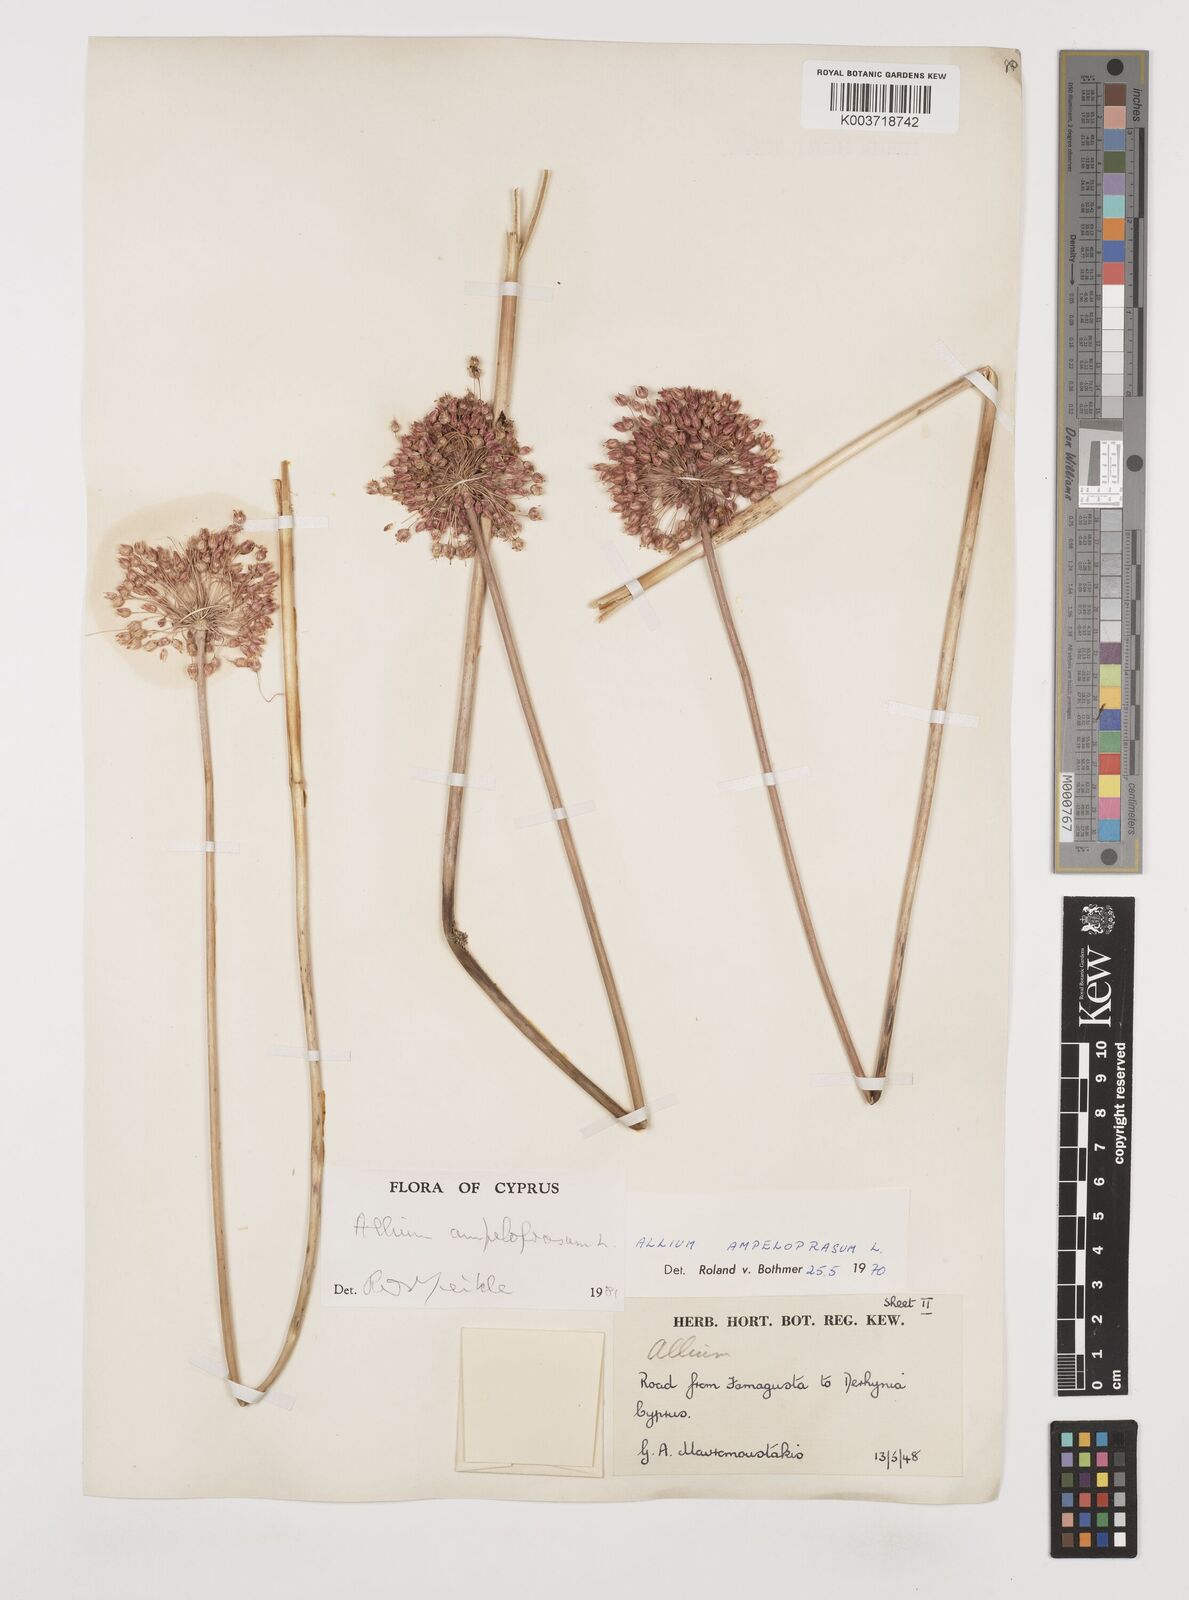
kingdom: Plantae
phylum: Tracheophyta
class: Liliopsida
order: Asparagales
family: Amaryllidaceae
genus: Allium
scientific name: Allium rotundum
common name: Sand leek
